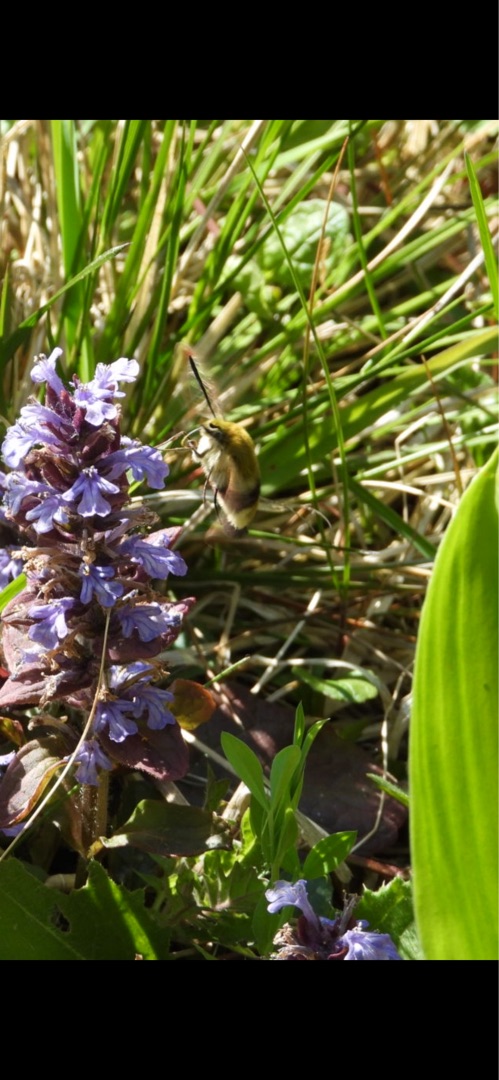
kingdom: Animalia
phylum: Arthropoda
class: Insecta
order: Lepidoptera
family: Sphingidae
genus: Hemaris
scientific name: Hemaris fuciformis
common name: Bredrandet humlebisværmer
